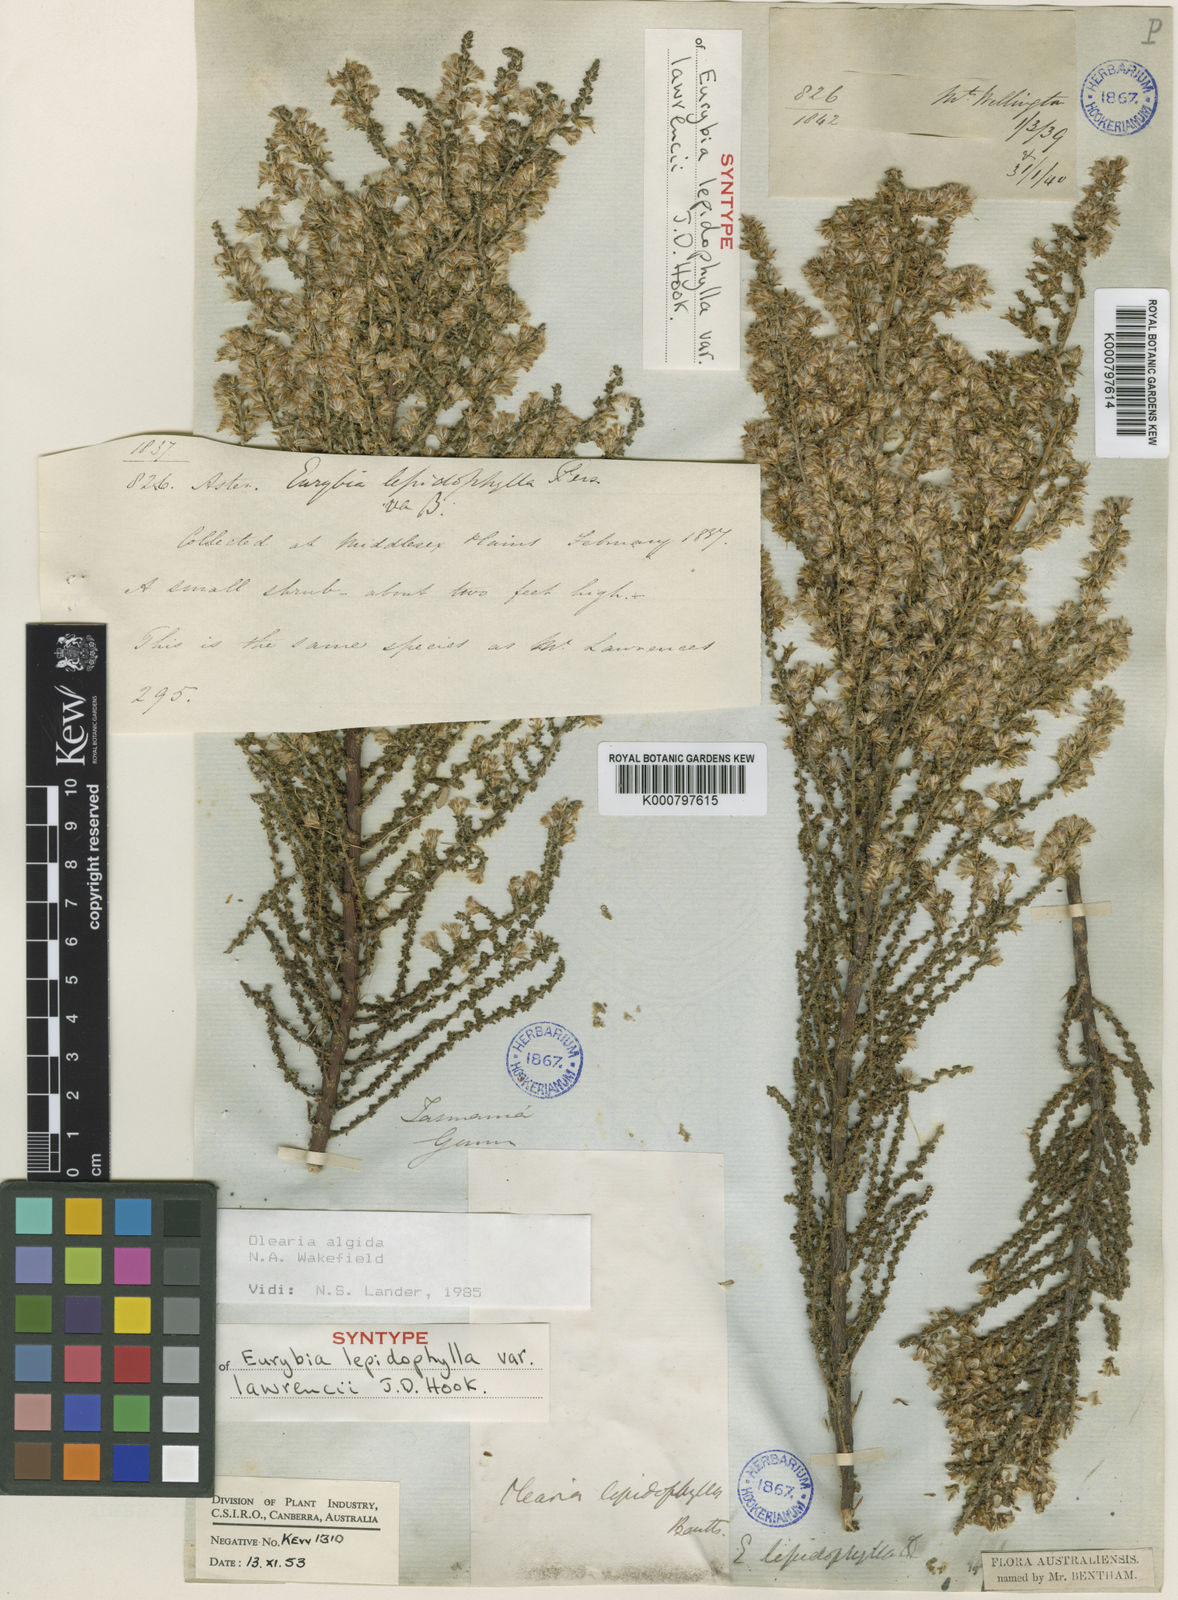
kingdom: Plantae
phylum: Tracheophyta
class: Magnoliopsida
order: Asterales
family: Asteraceae
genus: Olearia
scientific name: Olearia algida
